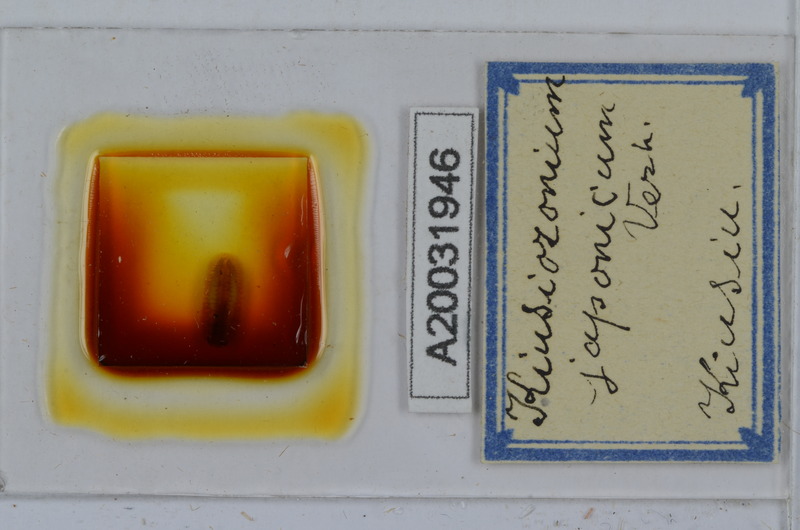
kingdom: Animalia
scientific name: Animalia
